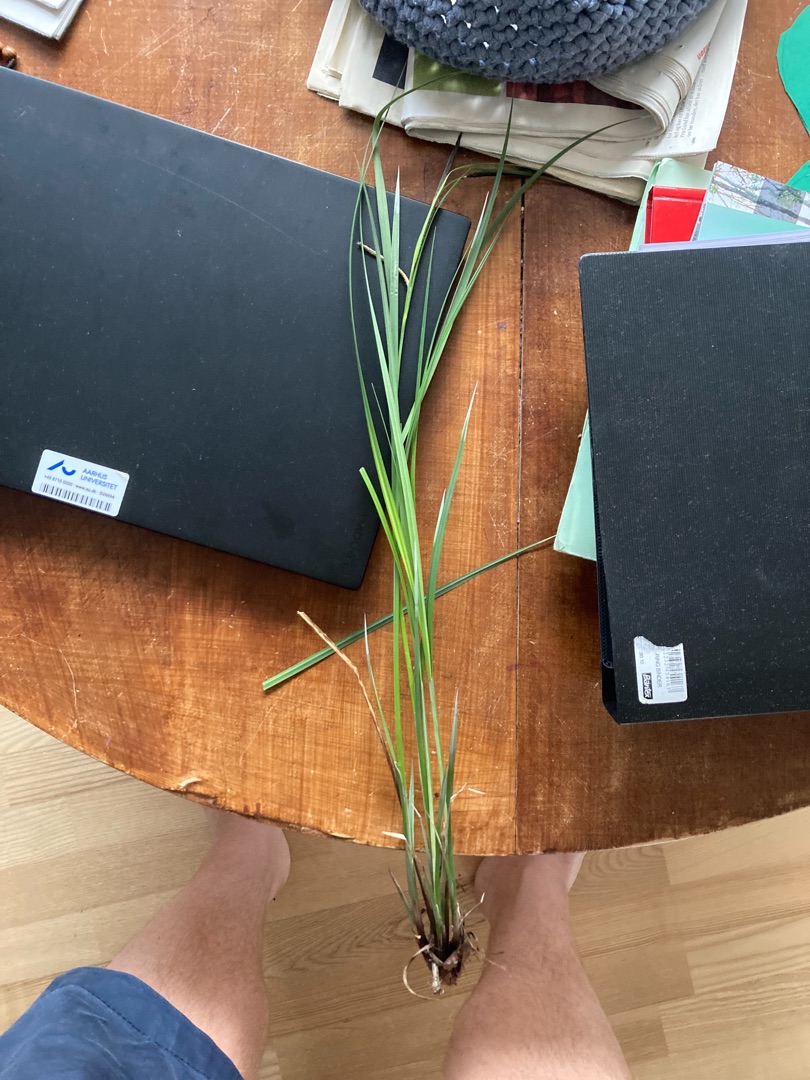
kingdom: Plantae
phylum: Tracheophyta
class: Liliopsida
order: Poales
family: Cyperaceae
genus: Carex
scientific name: Carex acuta
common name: Nikkende star
